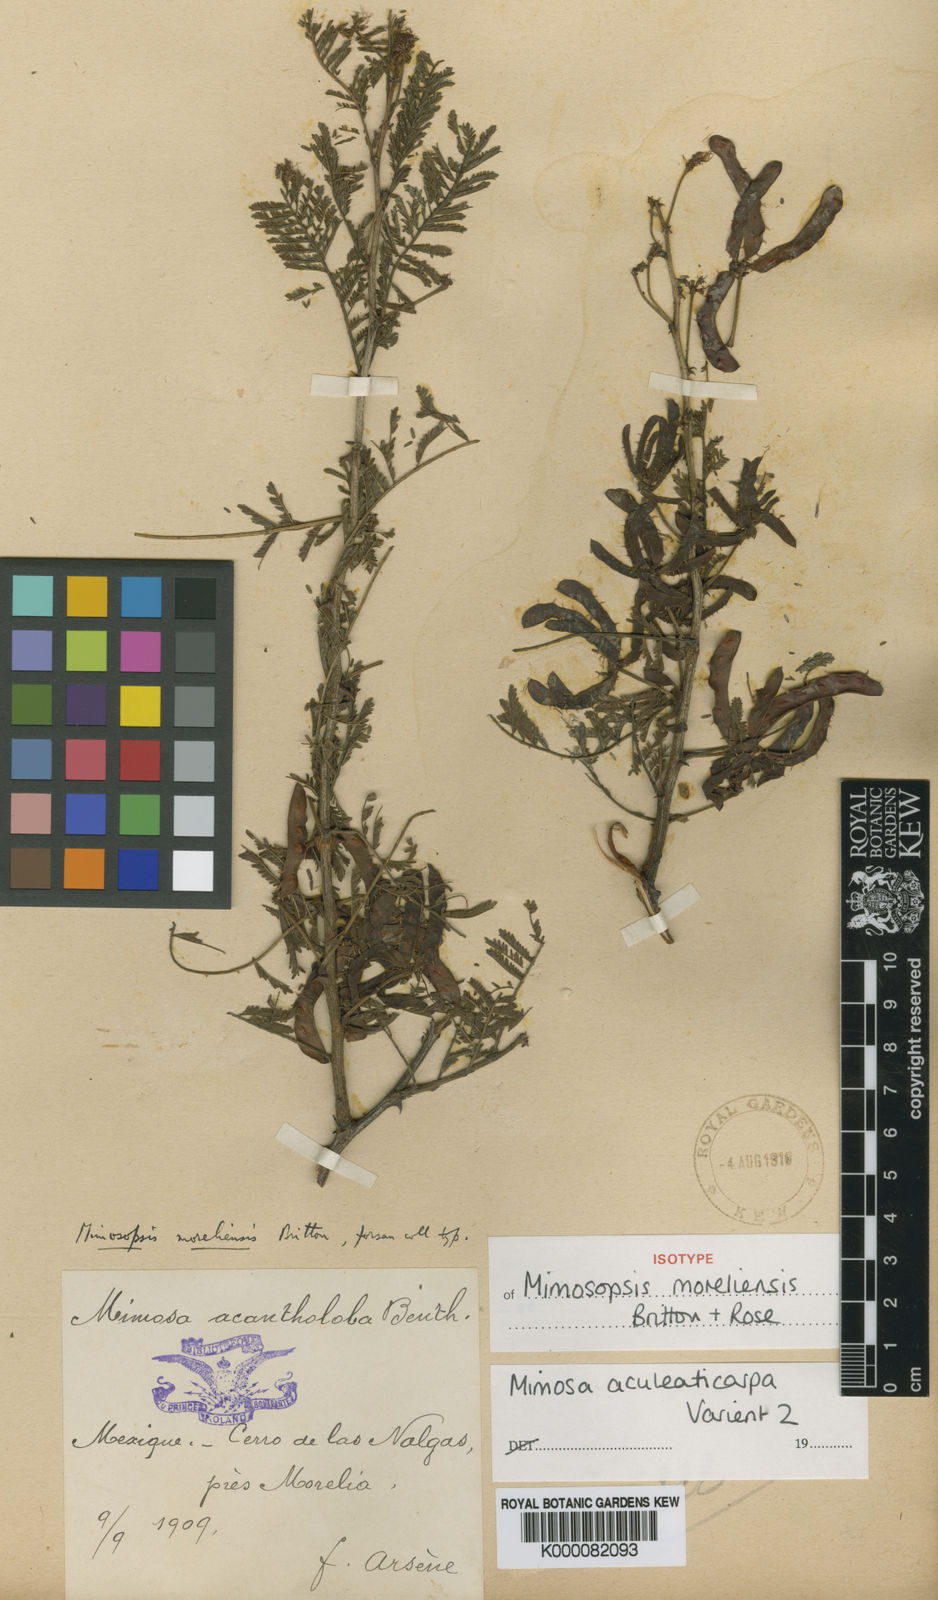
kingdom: Plantae
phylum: Tracheophyta
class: Magnoliopsida
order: Fabales
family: Fabaceae
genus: Mimosa
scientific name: Mimosa aculeaticarpa
